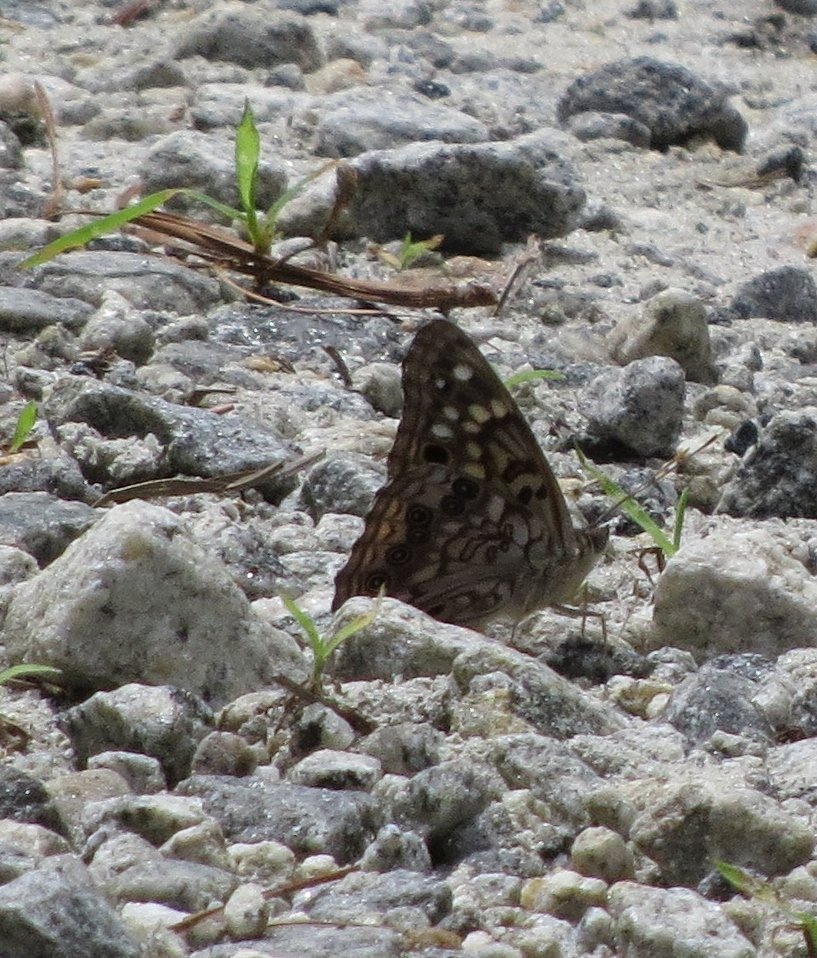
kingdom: Animalia
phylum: Arthropoda
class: Insecta
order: Lepidoptera
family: Nymphalidae
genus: Asterocampa
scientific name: Asterocampa celtis
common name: Hackberry Emperor
